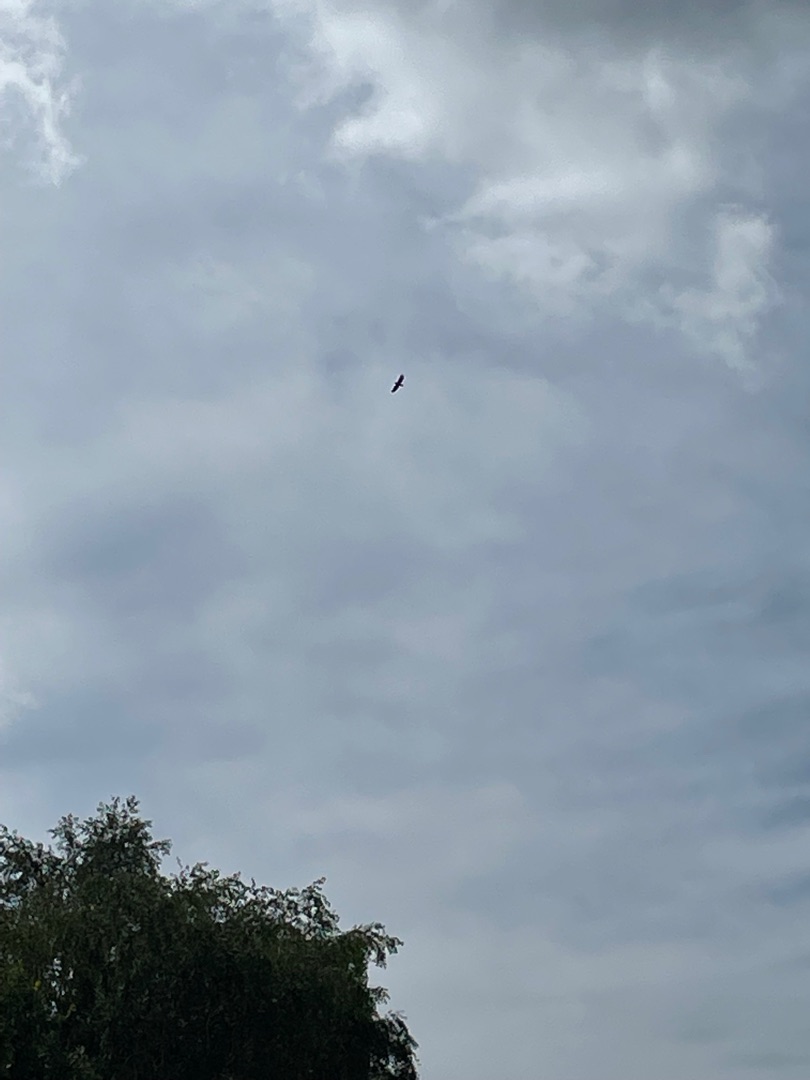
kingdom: Animalia
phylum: Chordata
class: Aves
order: Accipitriformes
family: Accipitridae
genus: Haliaeetus
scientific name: Haliaeetus albicilla
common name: Havørn
